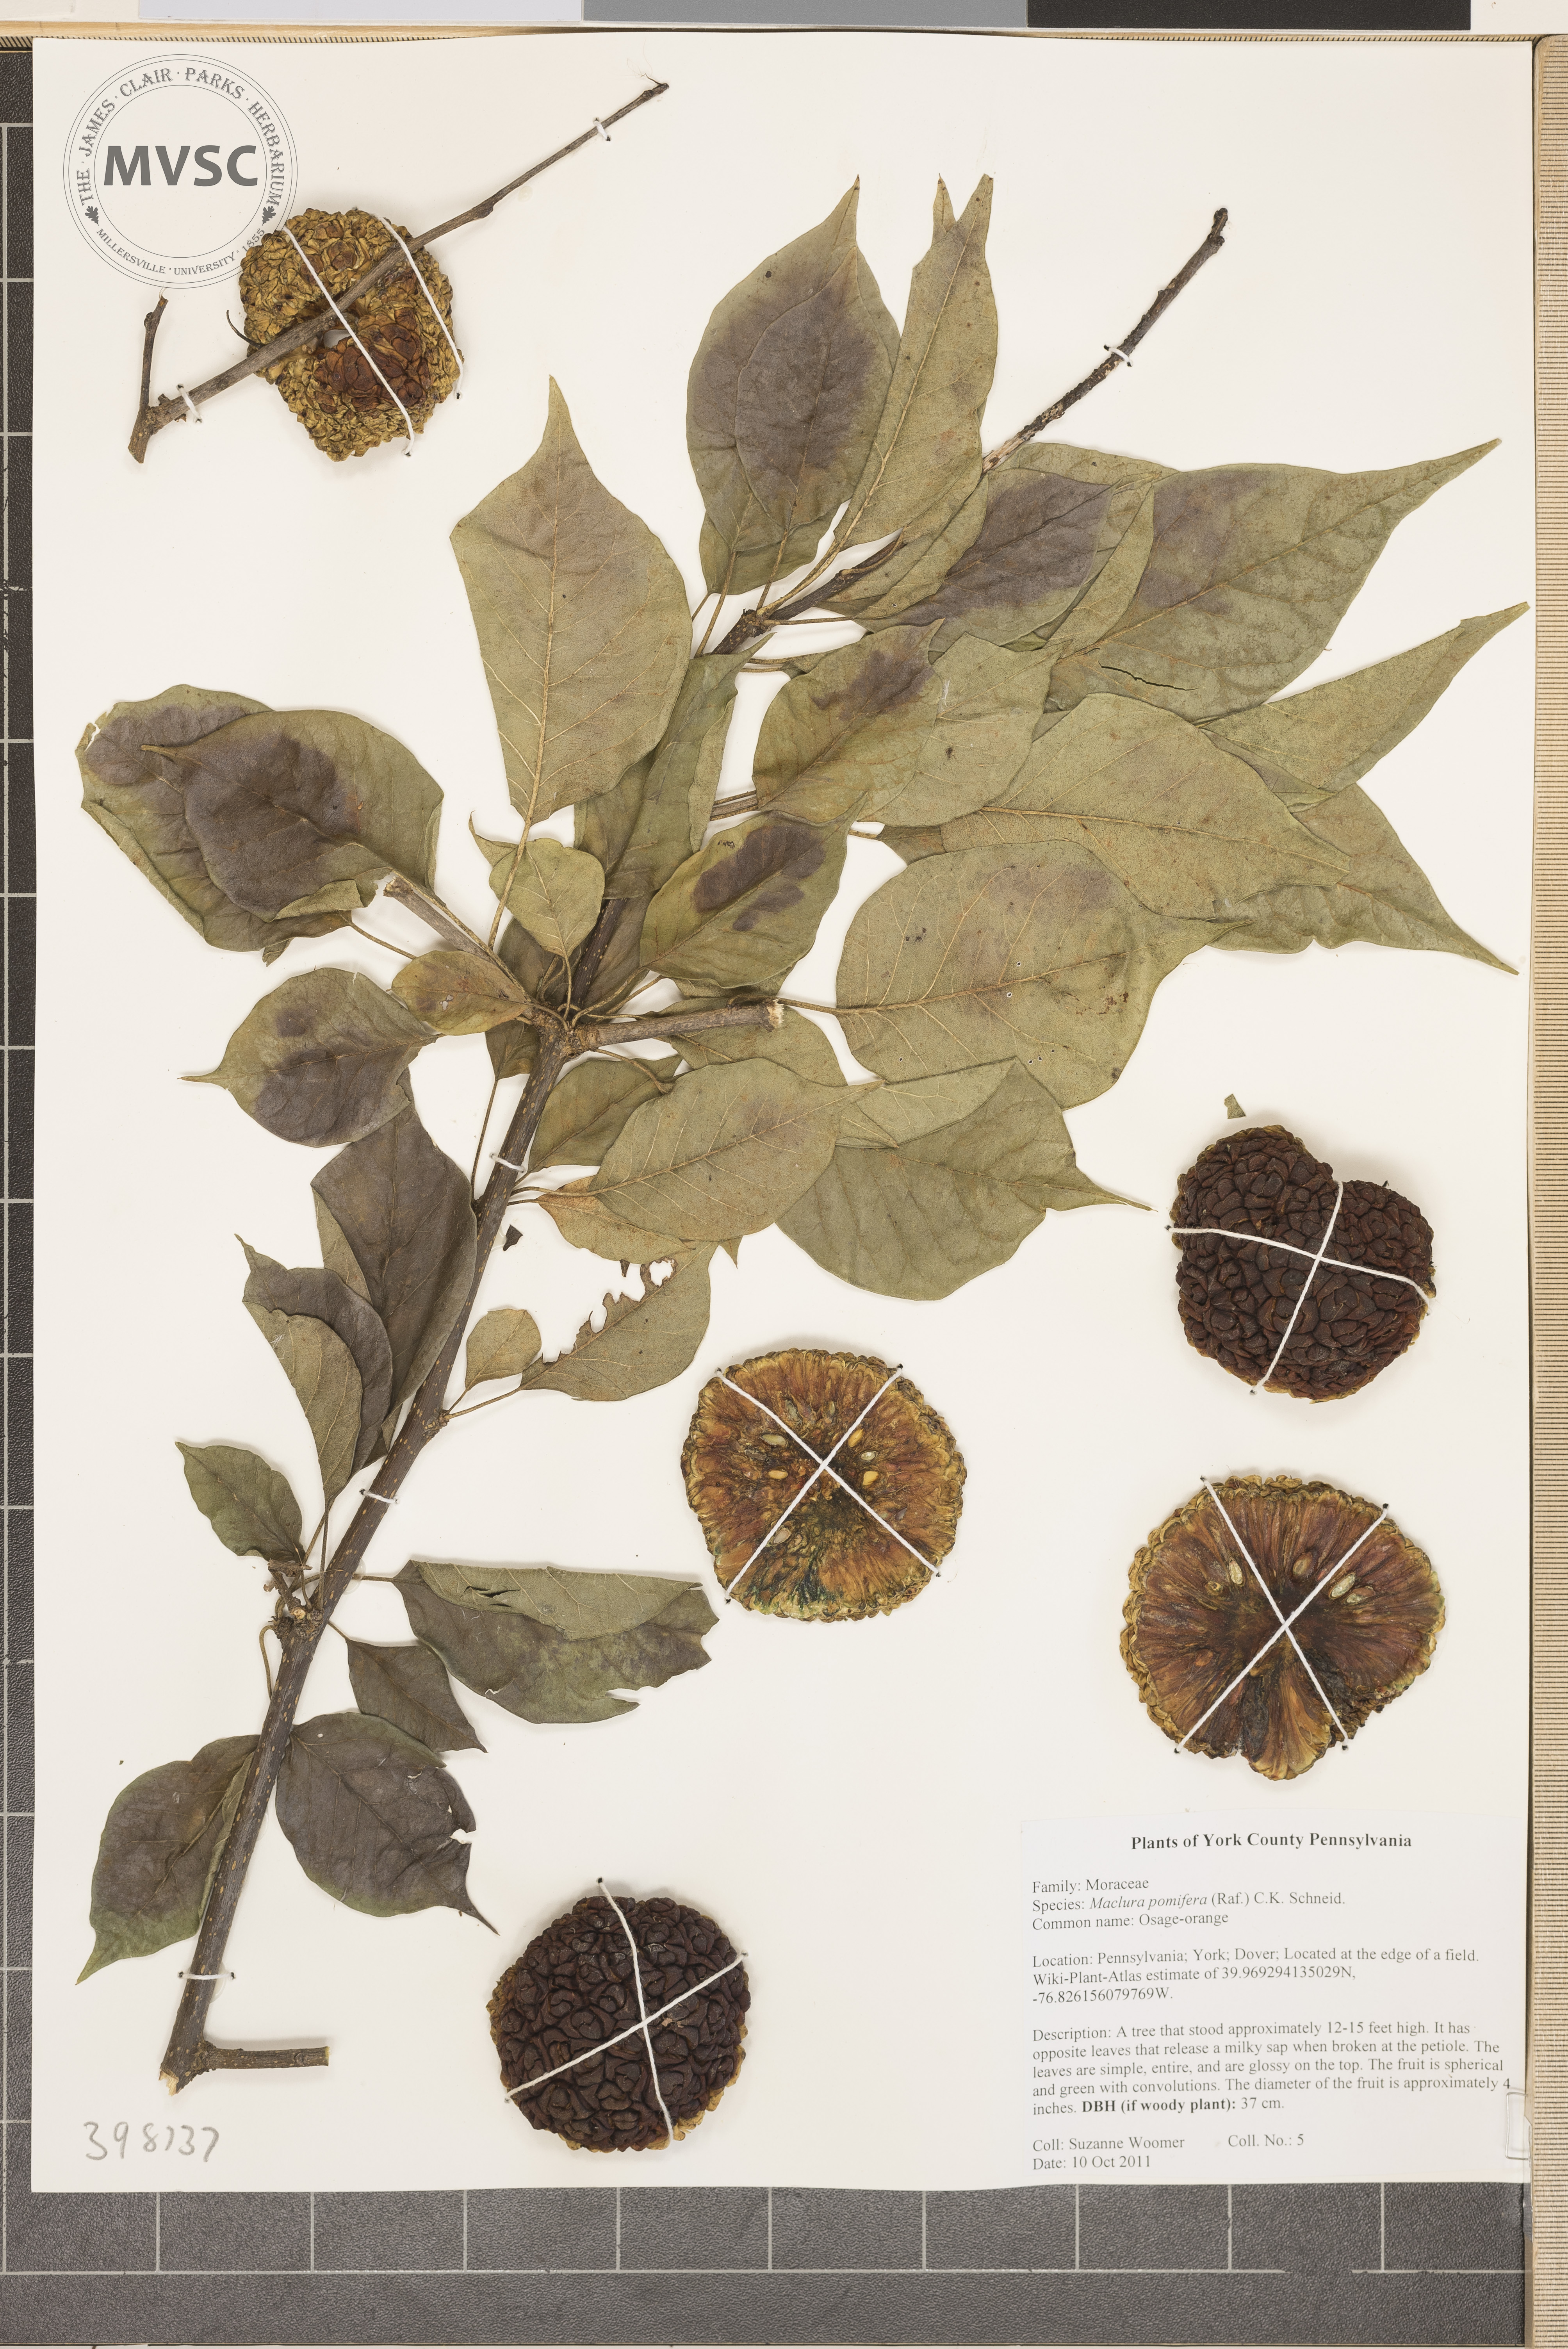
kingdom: Plantae
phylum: Tracheophyta
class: Magnoliopsida
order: Rosales
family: Moraceae
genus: Maclura
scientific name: Maclura pomifera
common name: Osage-orange
